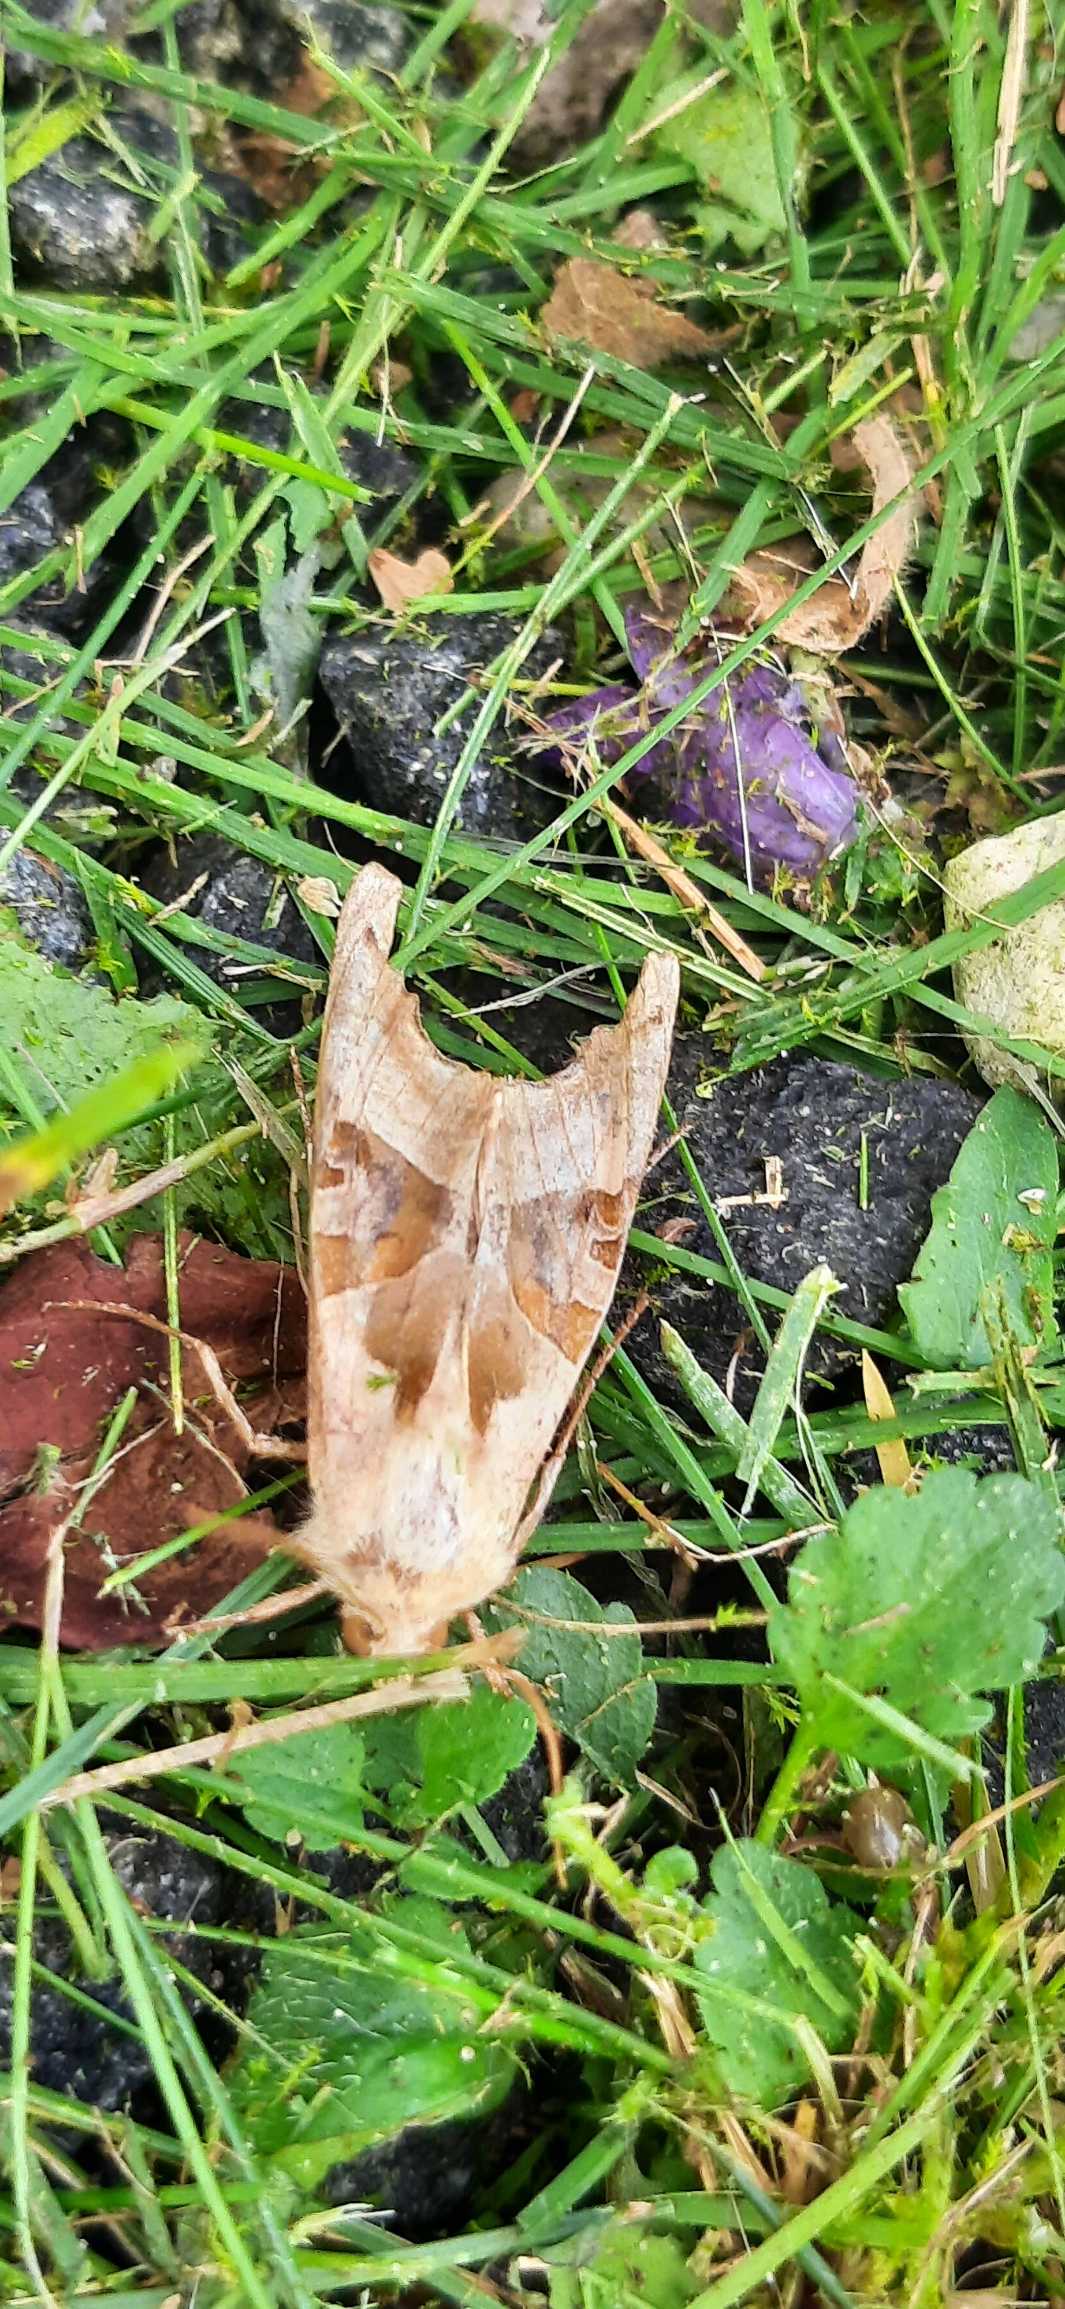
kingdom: Animalia
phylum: Arthropoda
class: Insecta
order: Lepidoptera
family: Noctuidae
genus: Phlogophora
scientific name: Phlogophora meticulosa
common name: Agatugle
